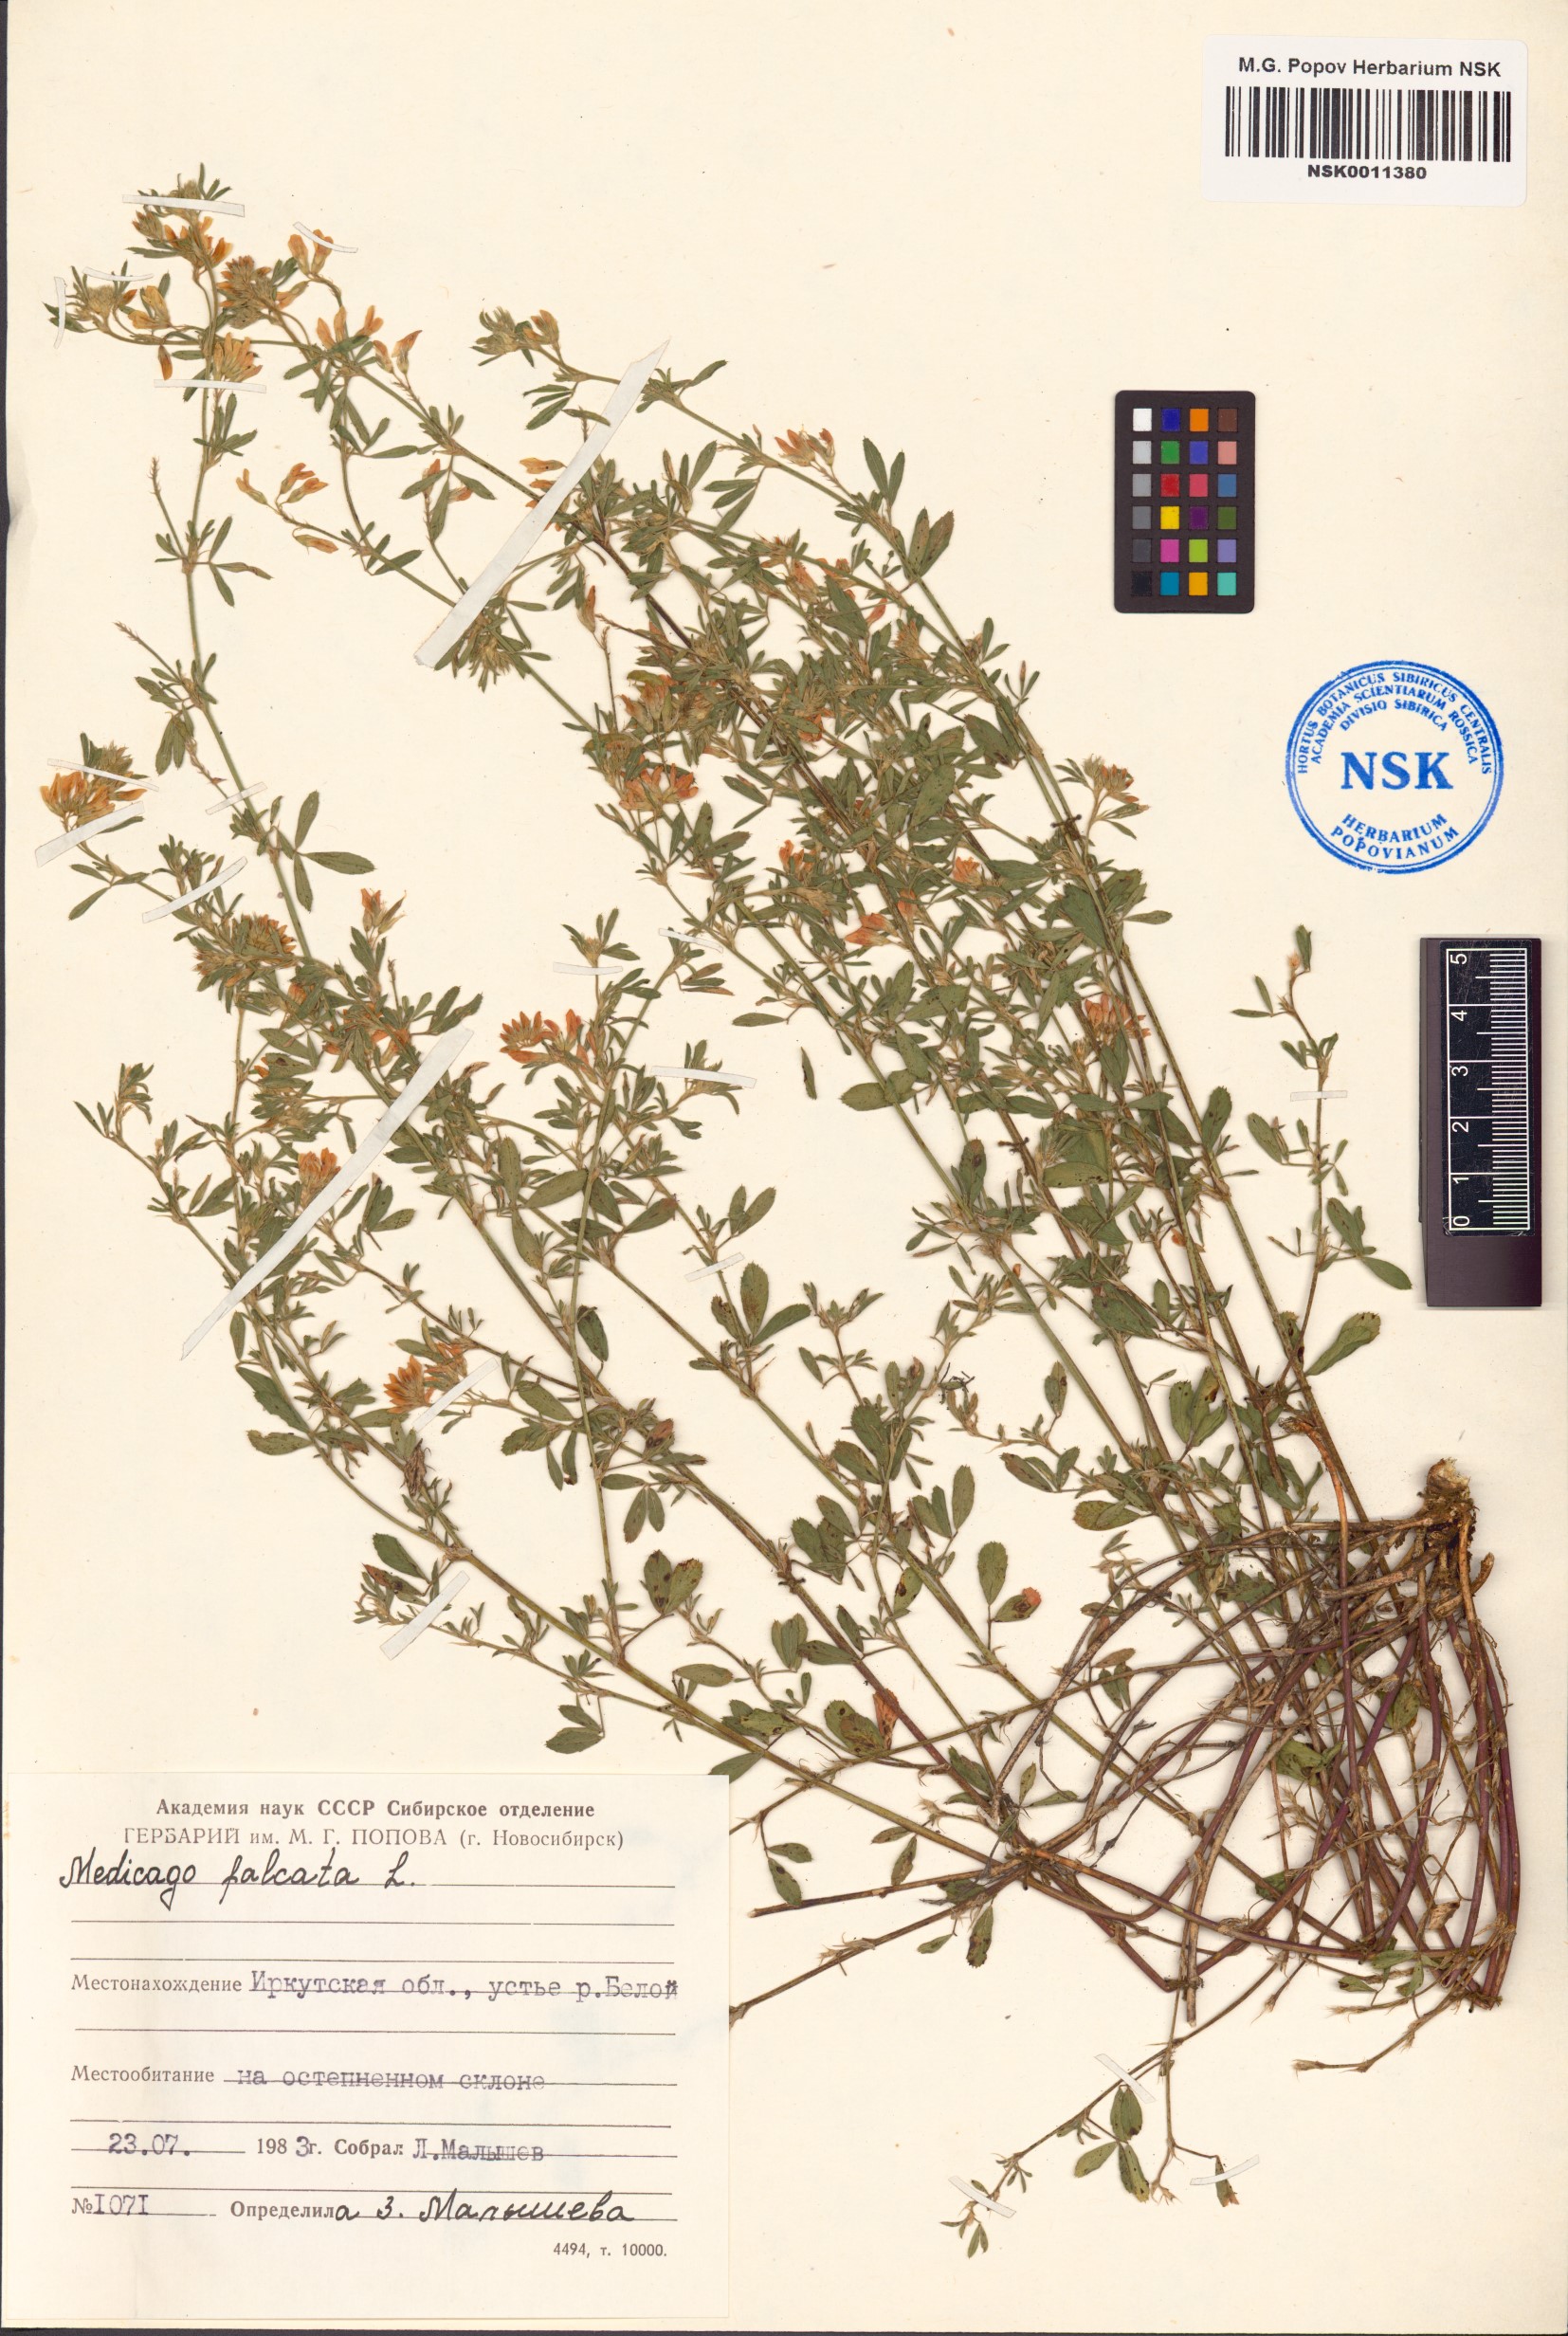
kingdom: Plantae
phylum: Tracheophyta
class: Magnoliopsida
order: Fabales
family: Fabaceae
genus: Medicago
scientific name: Medicago falcata
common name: Sickle medick
